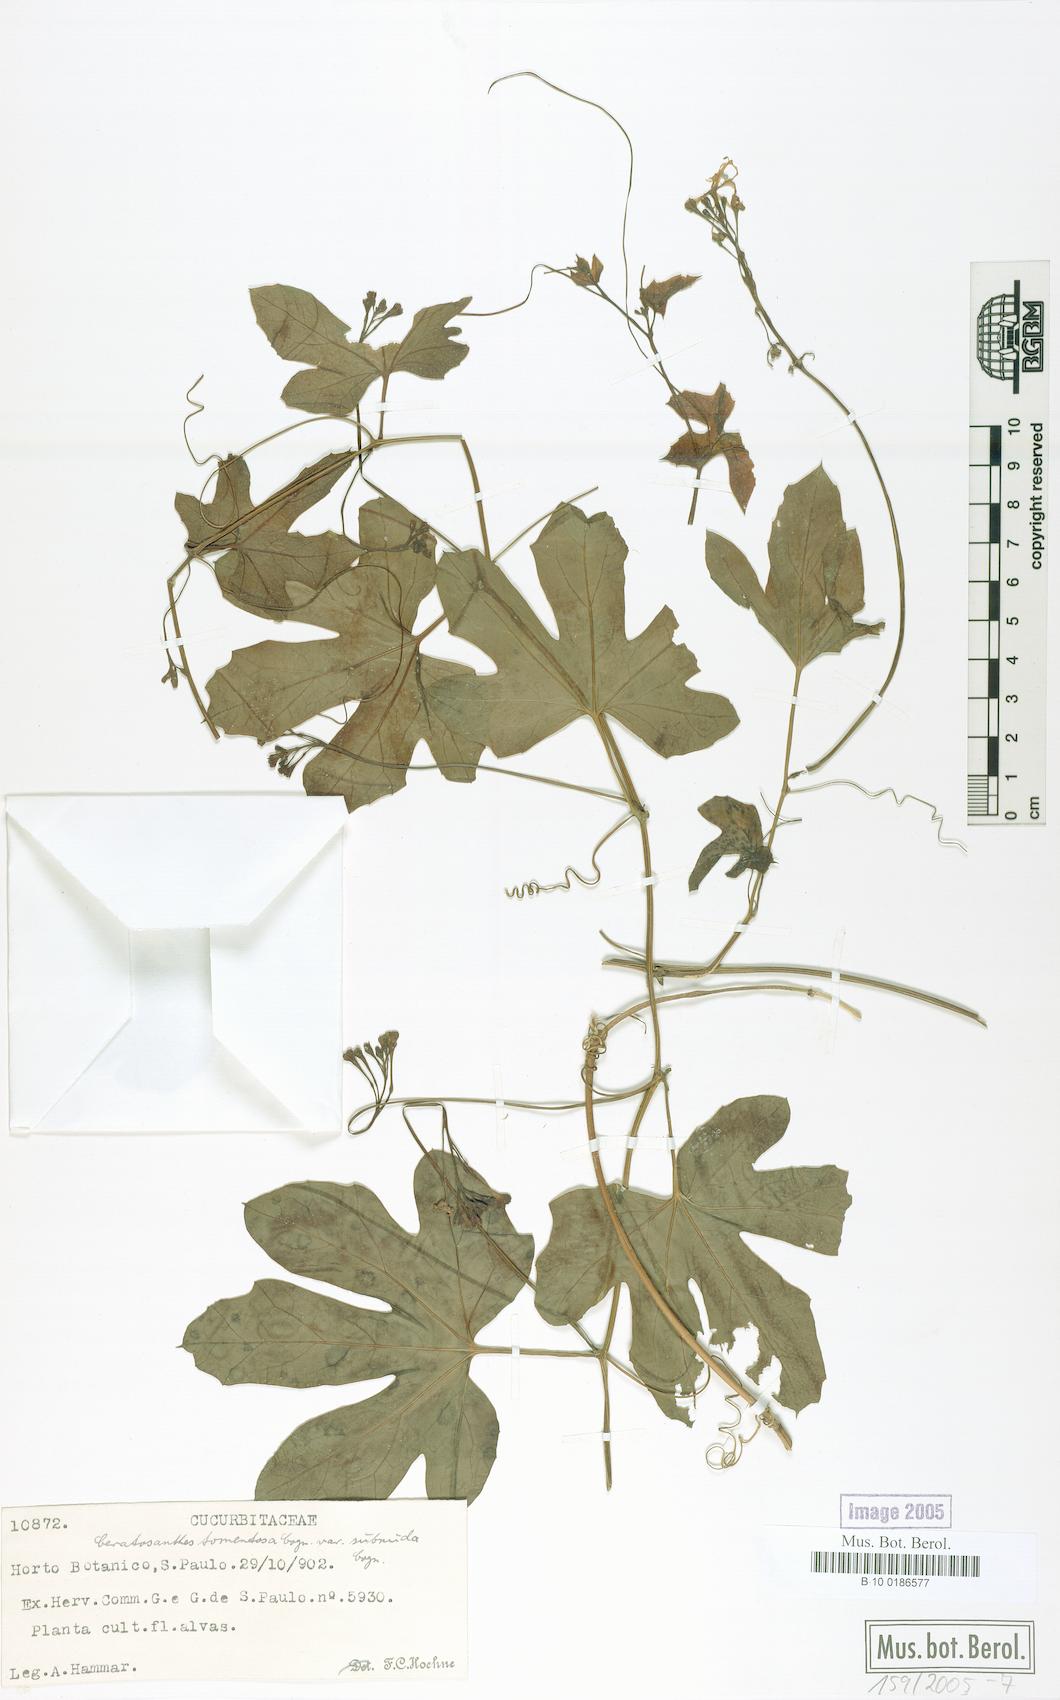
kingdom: Plantae
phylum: Tracheophyta
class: Magnoliopsida
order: Cucurbitales
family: Cucurbitaceae
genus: Ceratosanthes
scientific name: Ceratosanthes tomentosa
